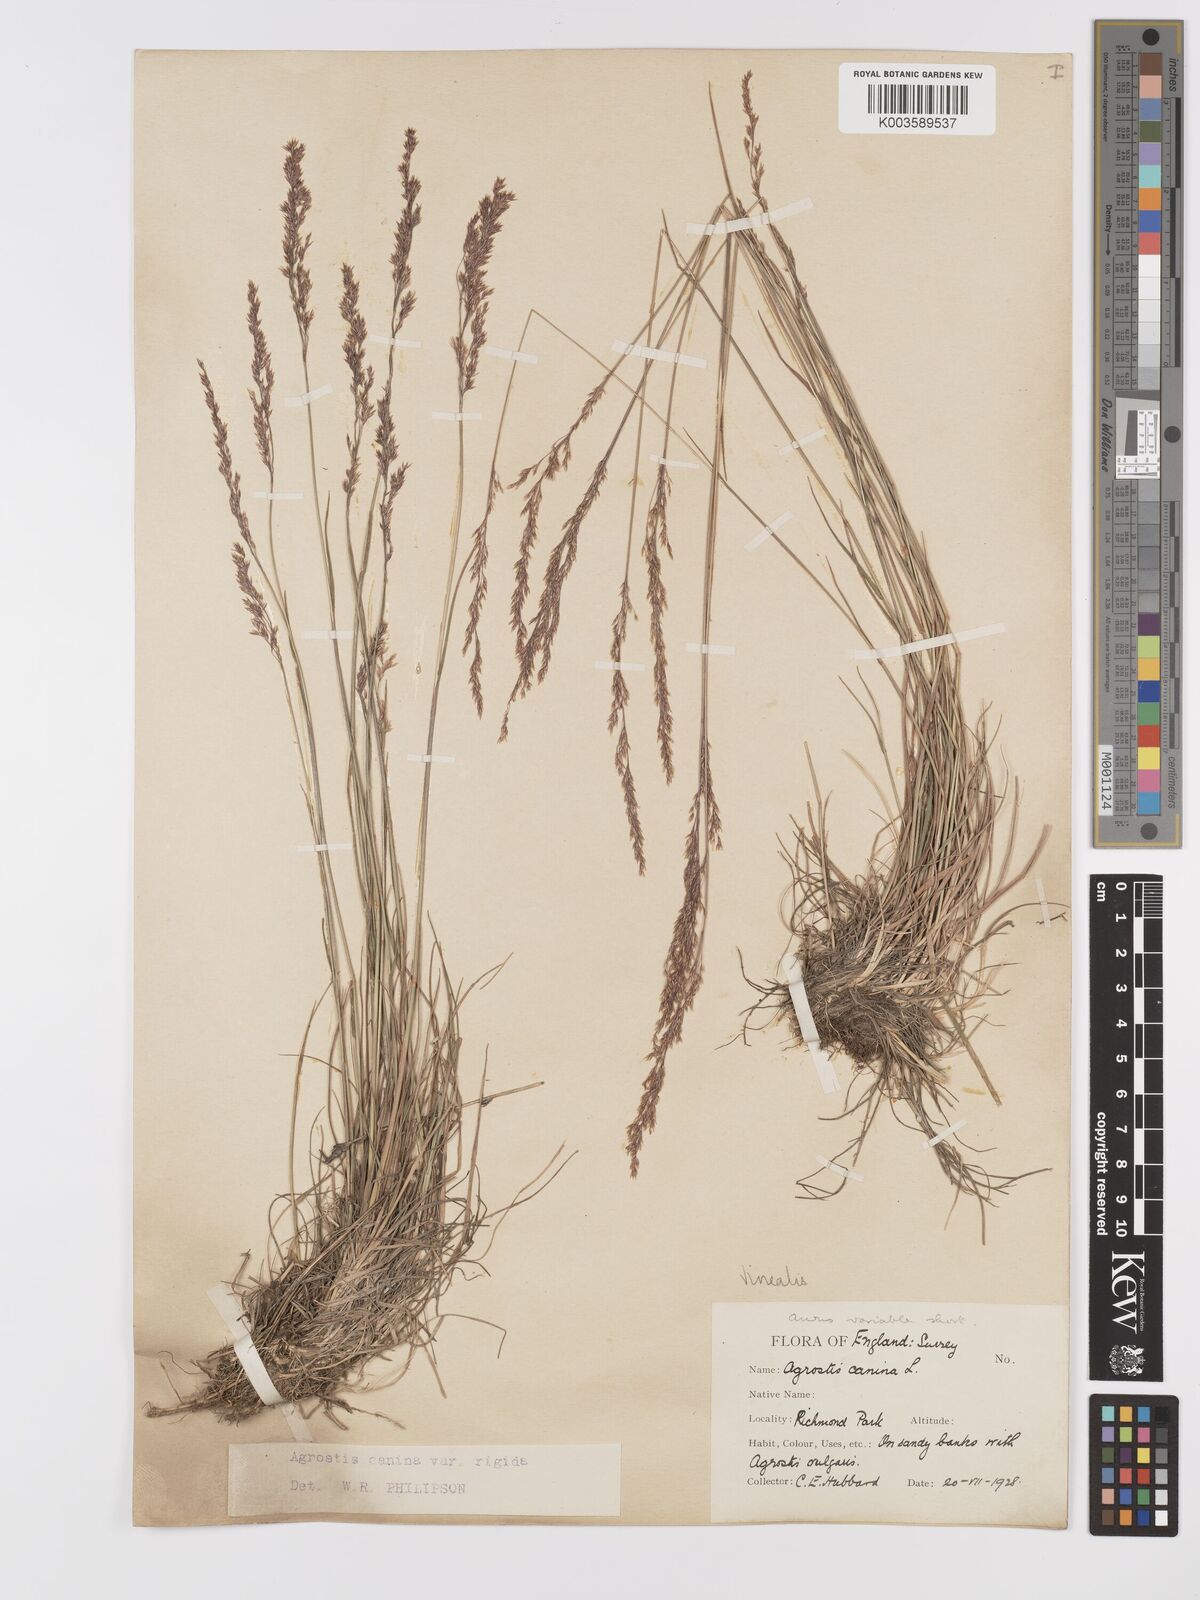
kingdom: Plantae
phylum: Tracheophyta
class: Liliopsida
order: Poales
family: Poaceae
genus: Agrostis
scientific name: Agrostis
